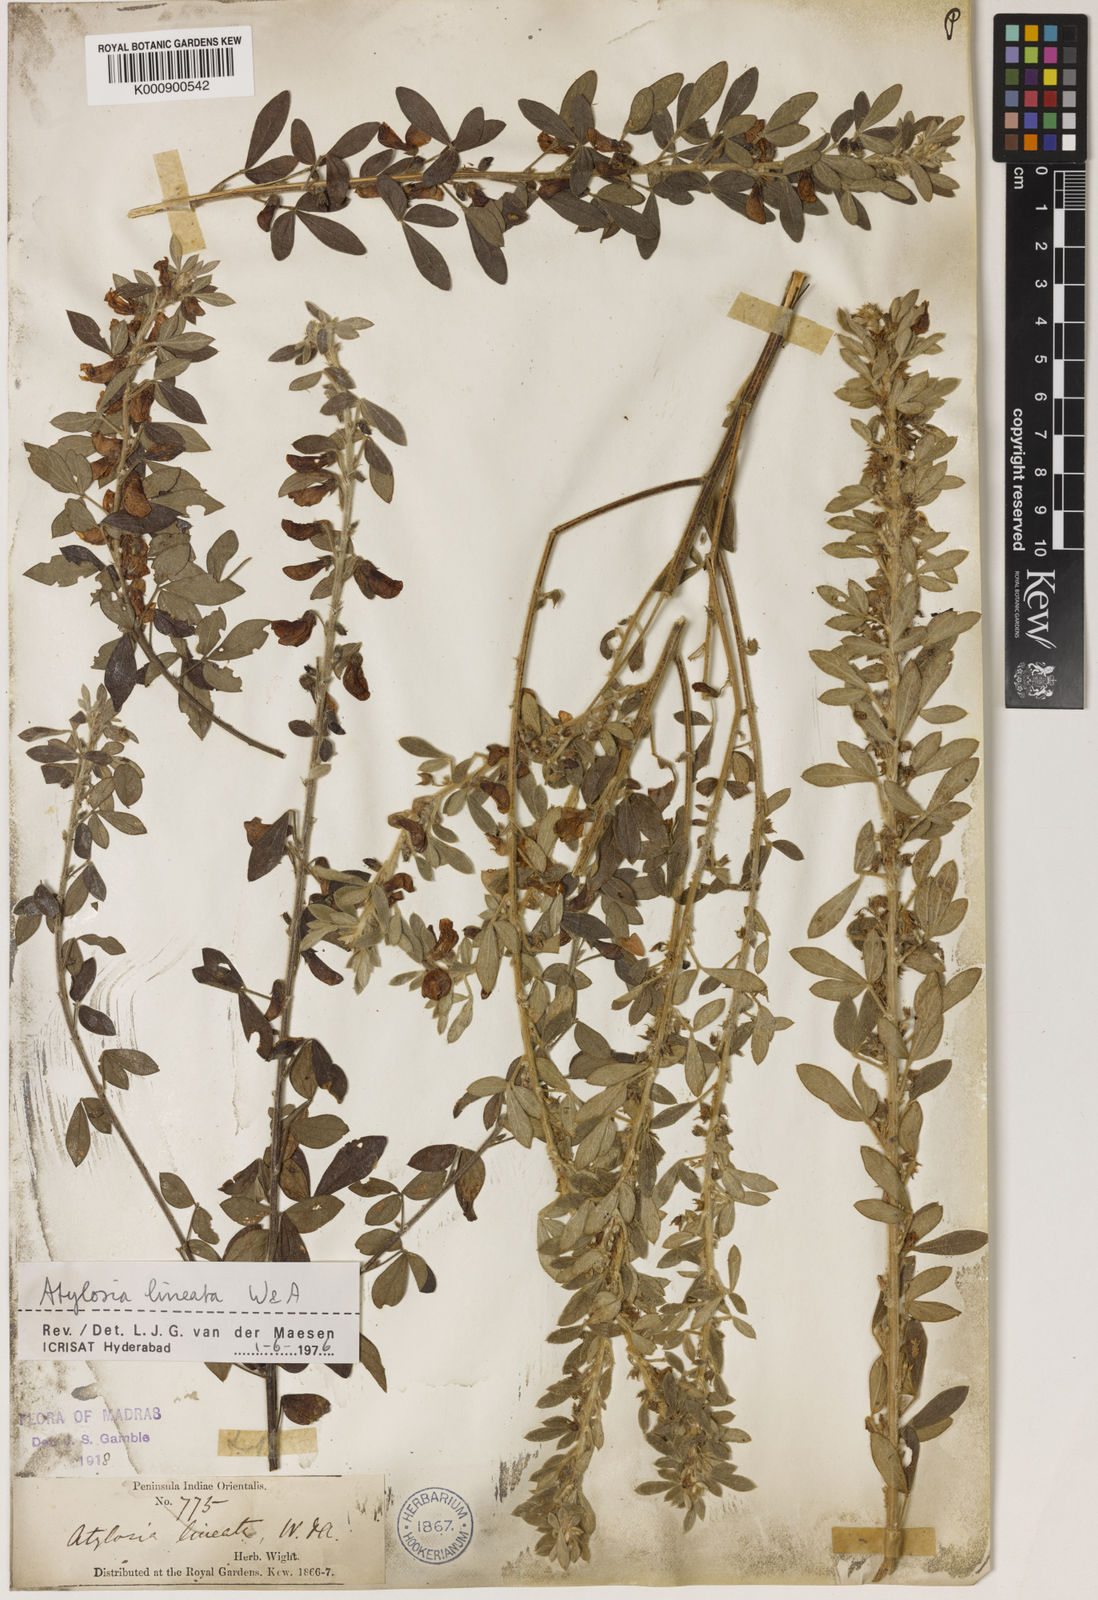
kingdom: Plantae
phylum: Tracheophyta
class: Magnoliopsida
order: Fabales
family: Fabaceae
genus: Cajanus
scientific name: Cajanus lineatus
